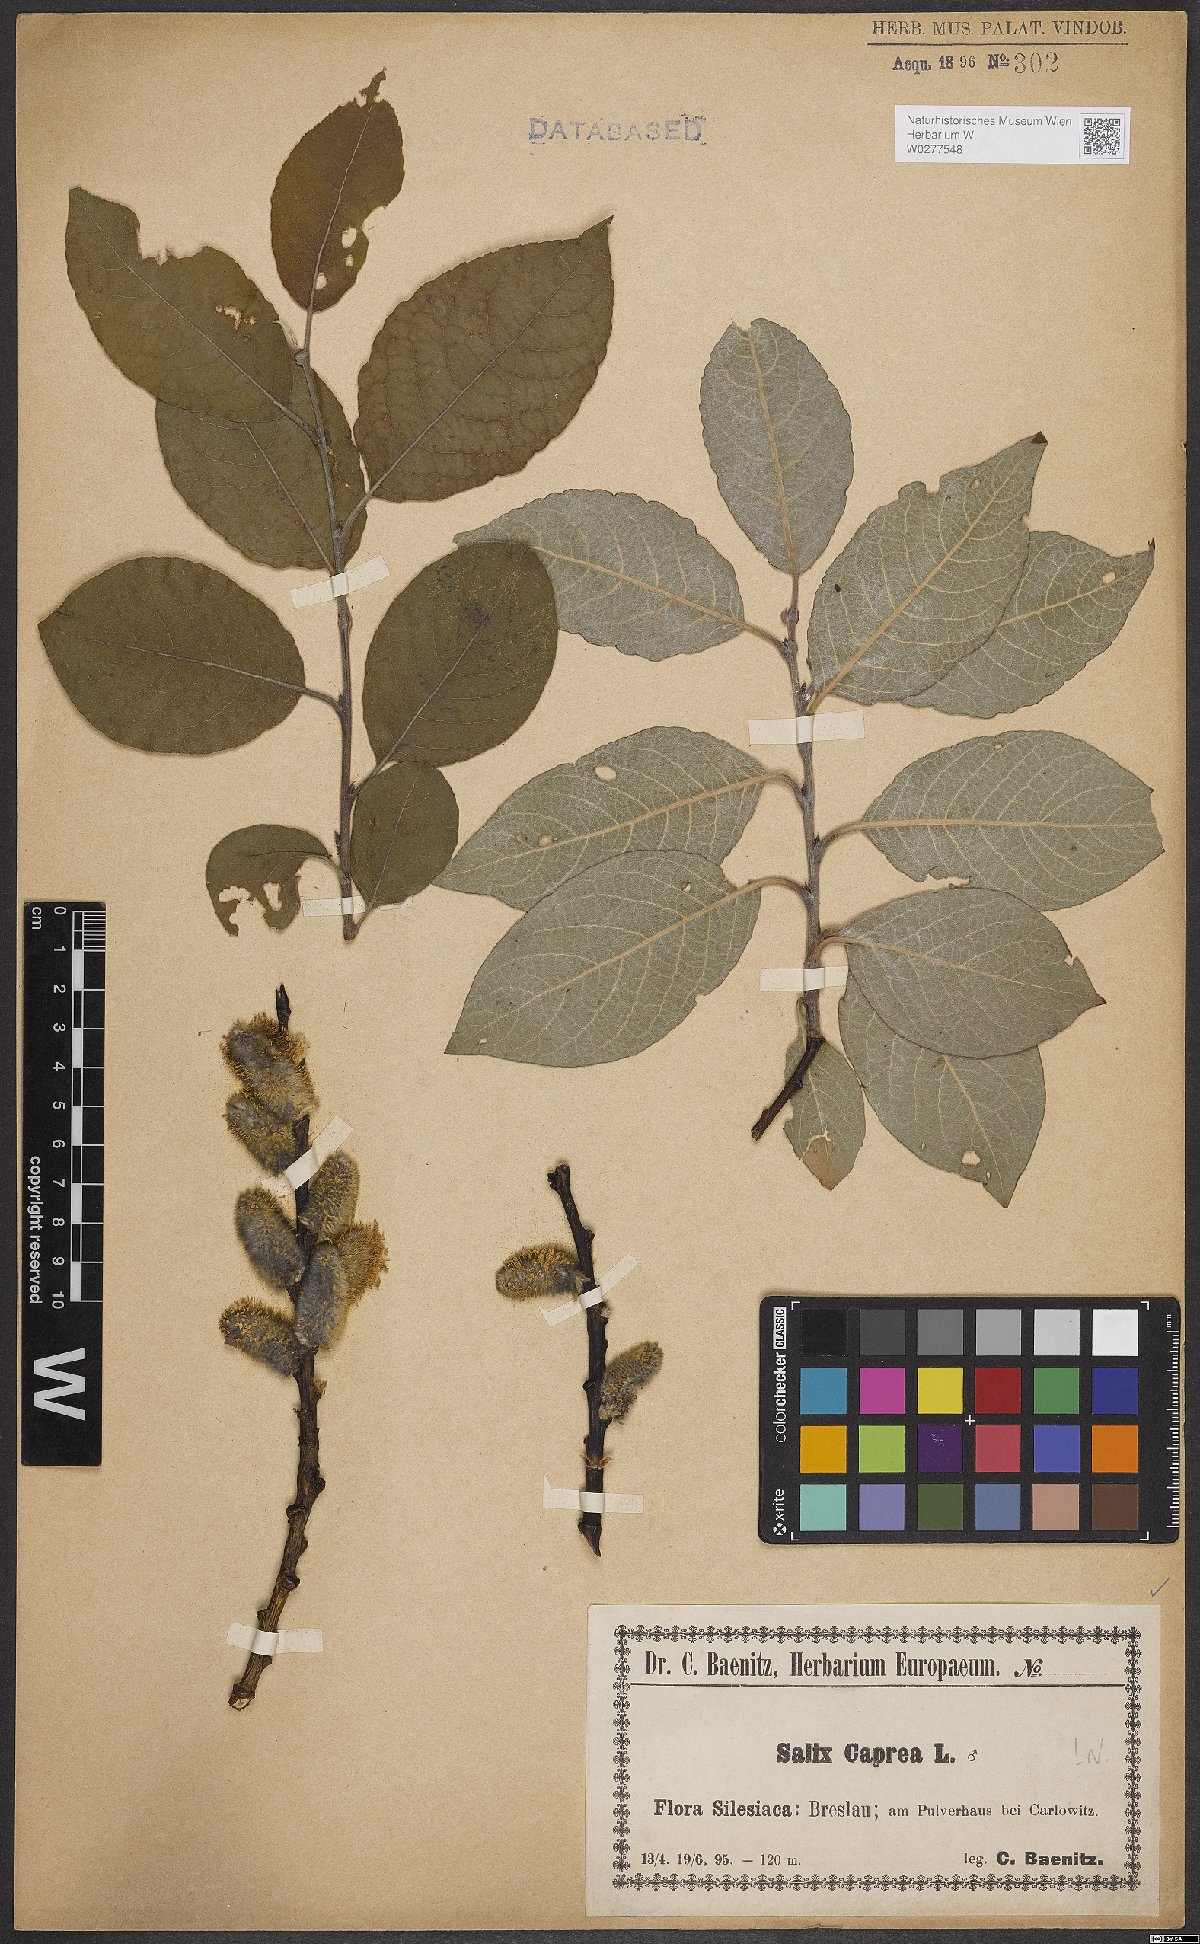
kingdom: Plantae
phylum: Tracheophyta
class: Magnoliopsida
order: Malpighiales
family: Salicaceae
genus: Salix
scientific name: Salix caprea
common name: Goat willow
